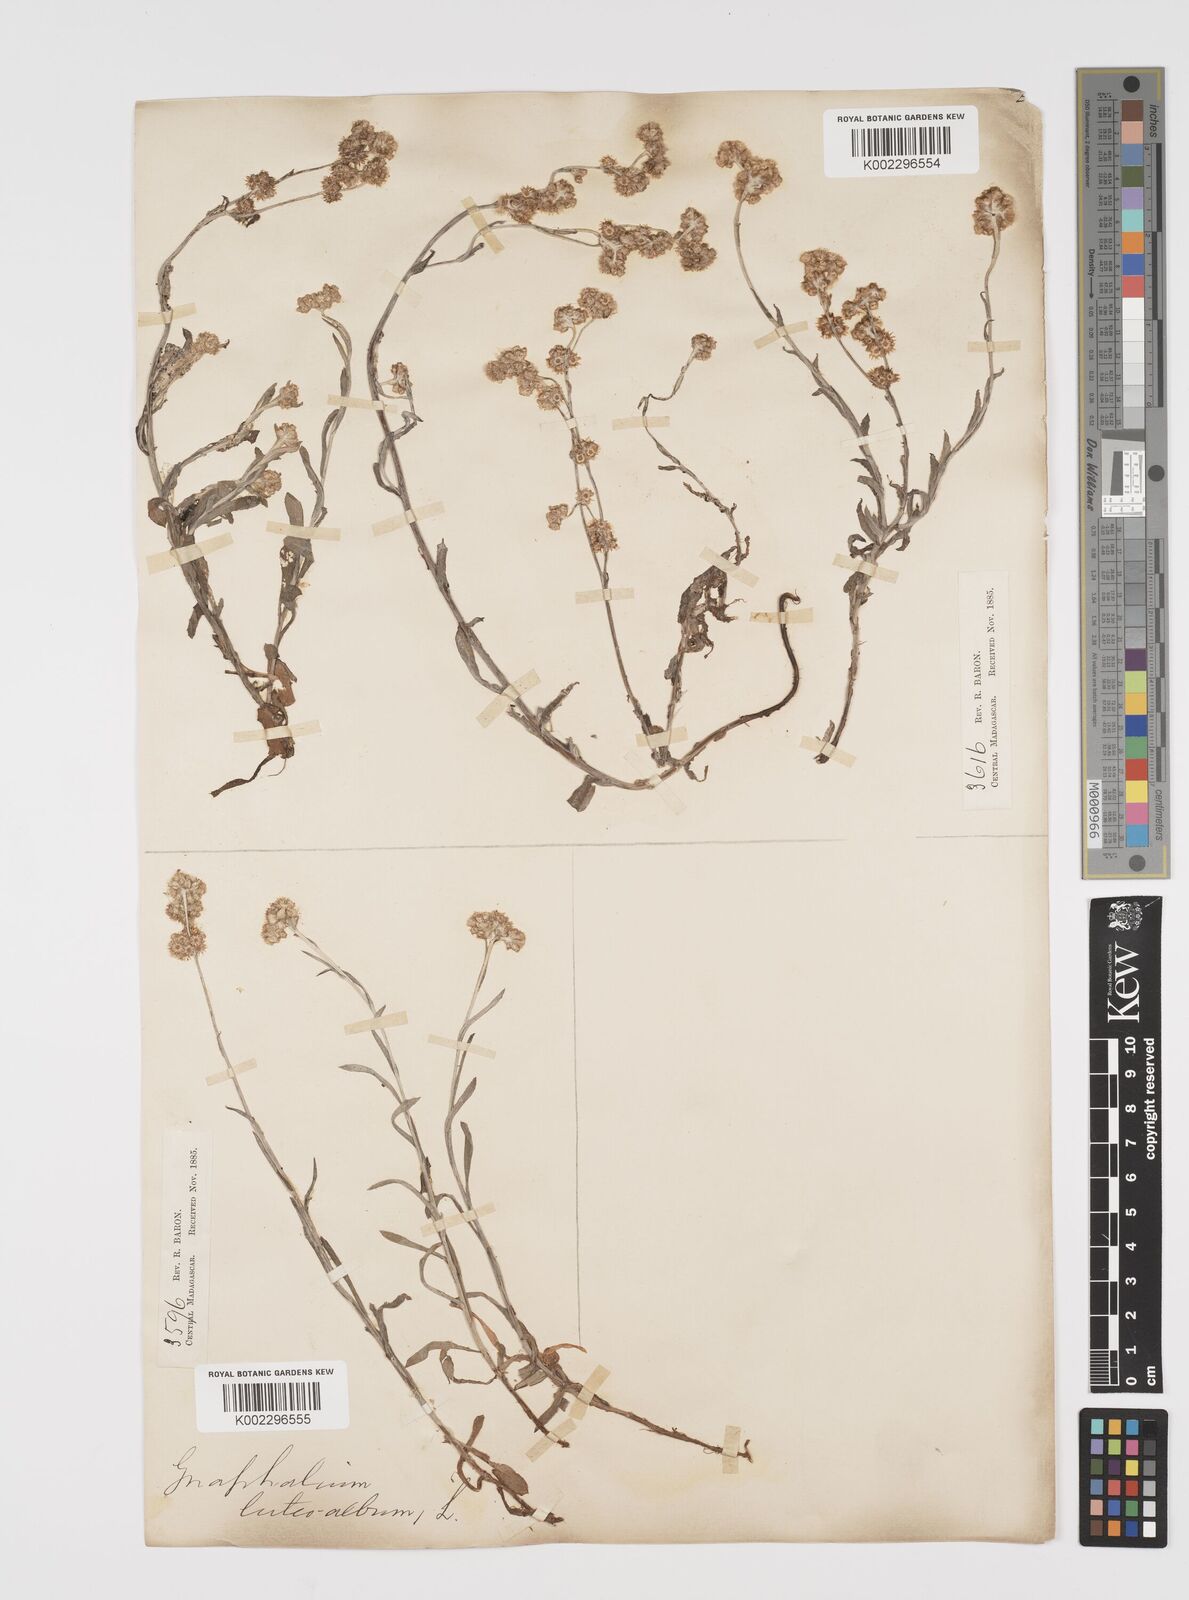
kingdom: Plantae
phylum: Tracheophyta
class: Magnoliopsida
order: Asterales
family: Asteraceae
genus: Helichrysum
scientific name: Helichrysum luteoalbum
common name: Daisy
